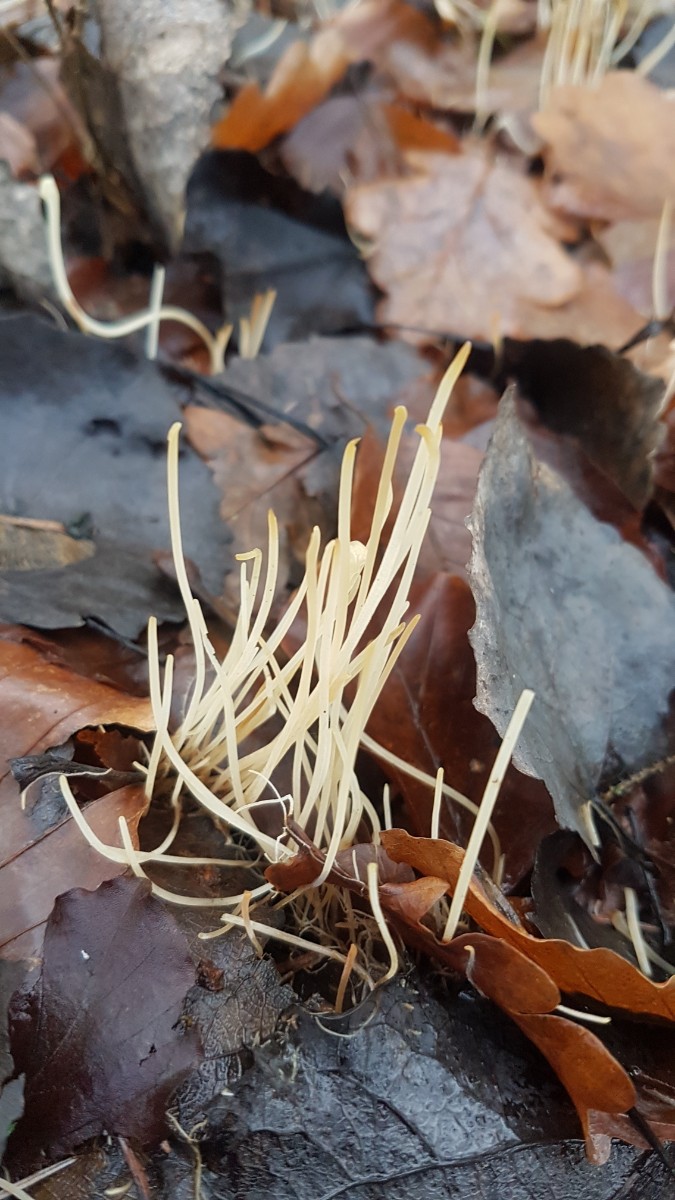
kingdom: Fungi
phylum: Basidiomycota
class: Agaricomycetes
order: Agaricales
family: Typhulaceae
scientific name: Typhulaceae
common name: trådkøllefamilien
